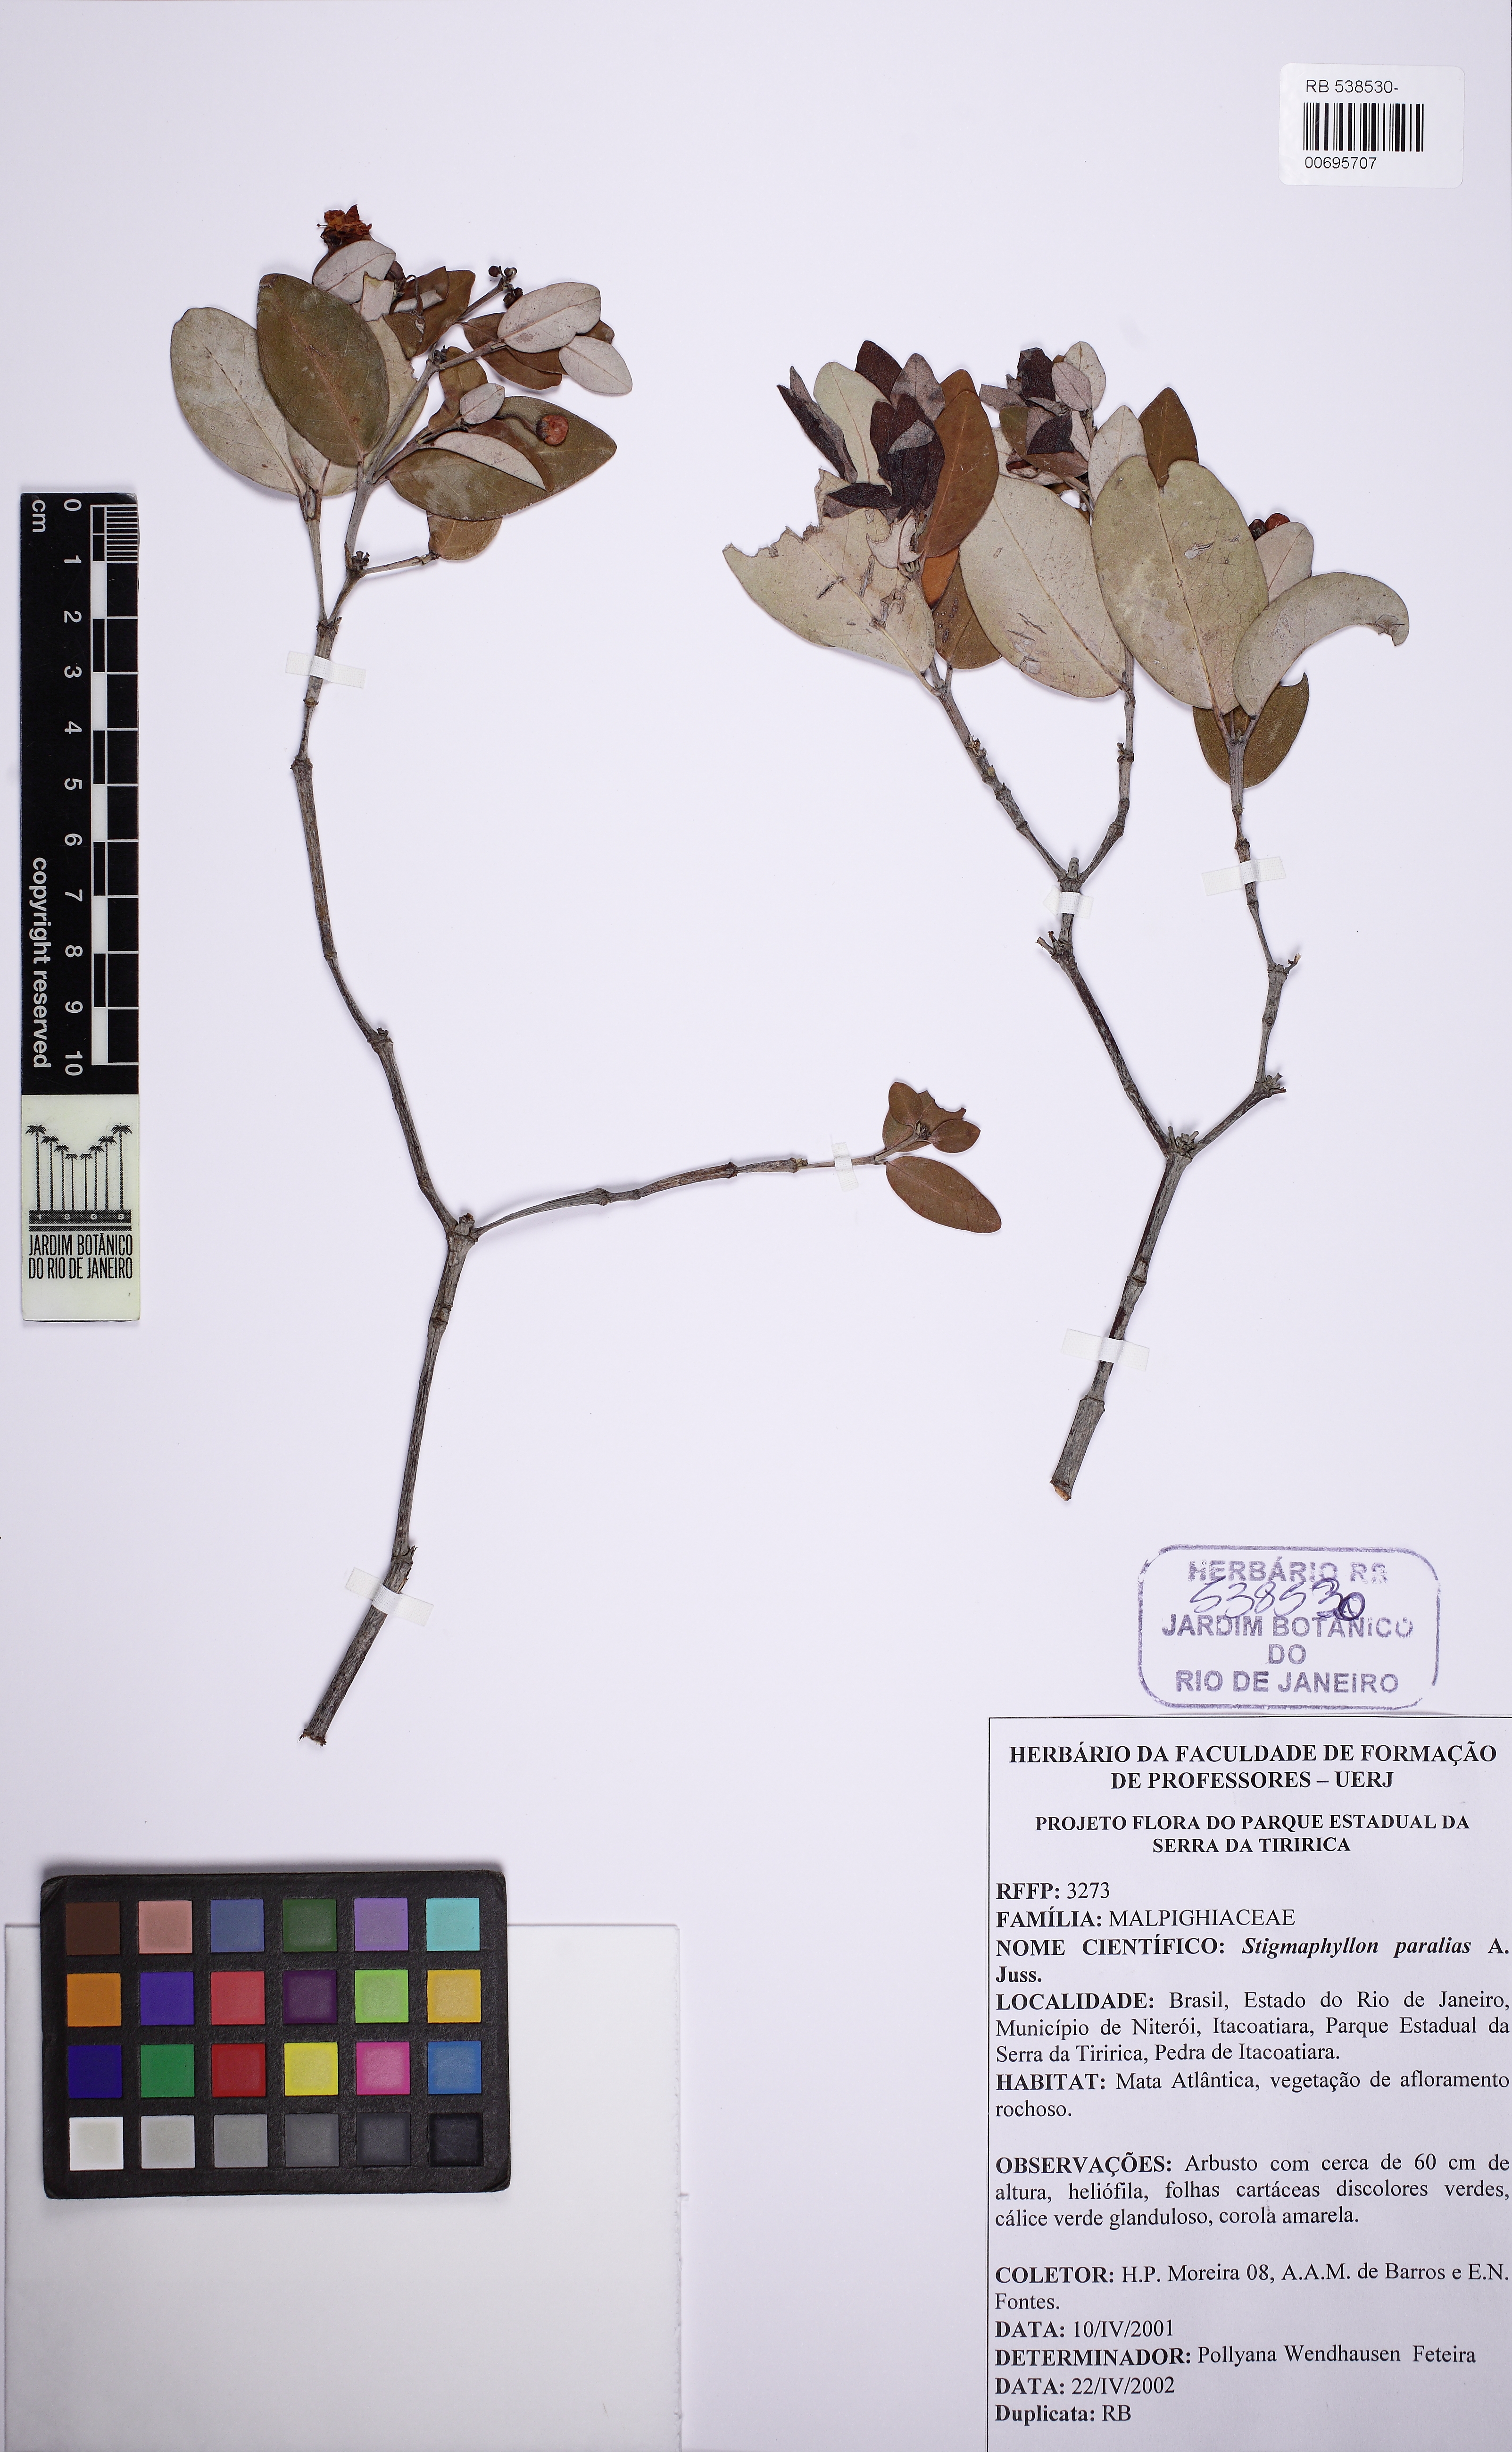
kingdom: Plantae
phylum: Tracheophyta
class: Magnoliopsida
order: Malpighiales
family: Malpighiaceae
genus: Stigmaphyllon
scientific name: Stigmaphyllon paralias
